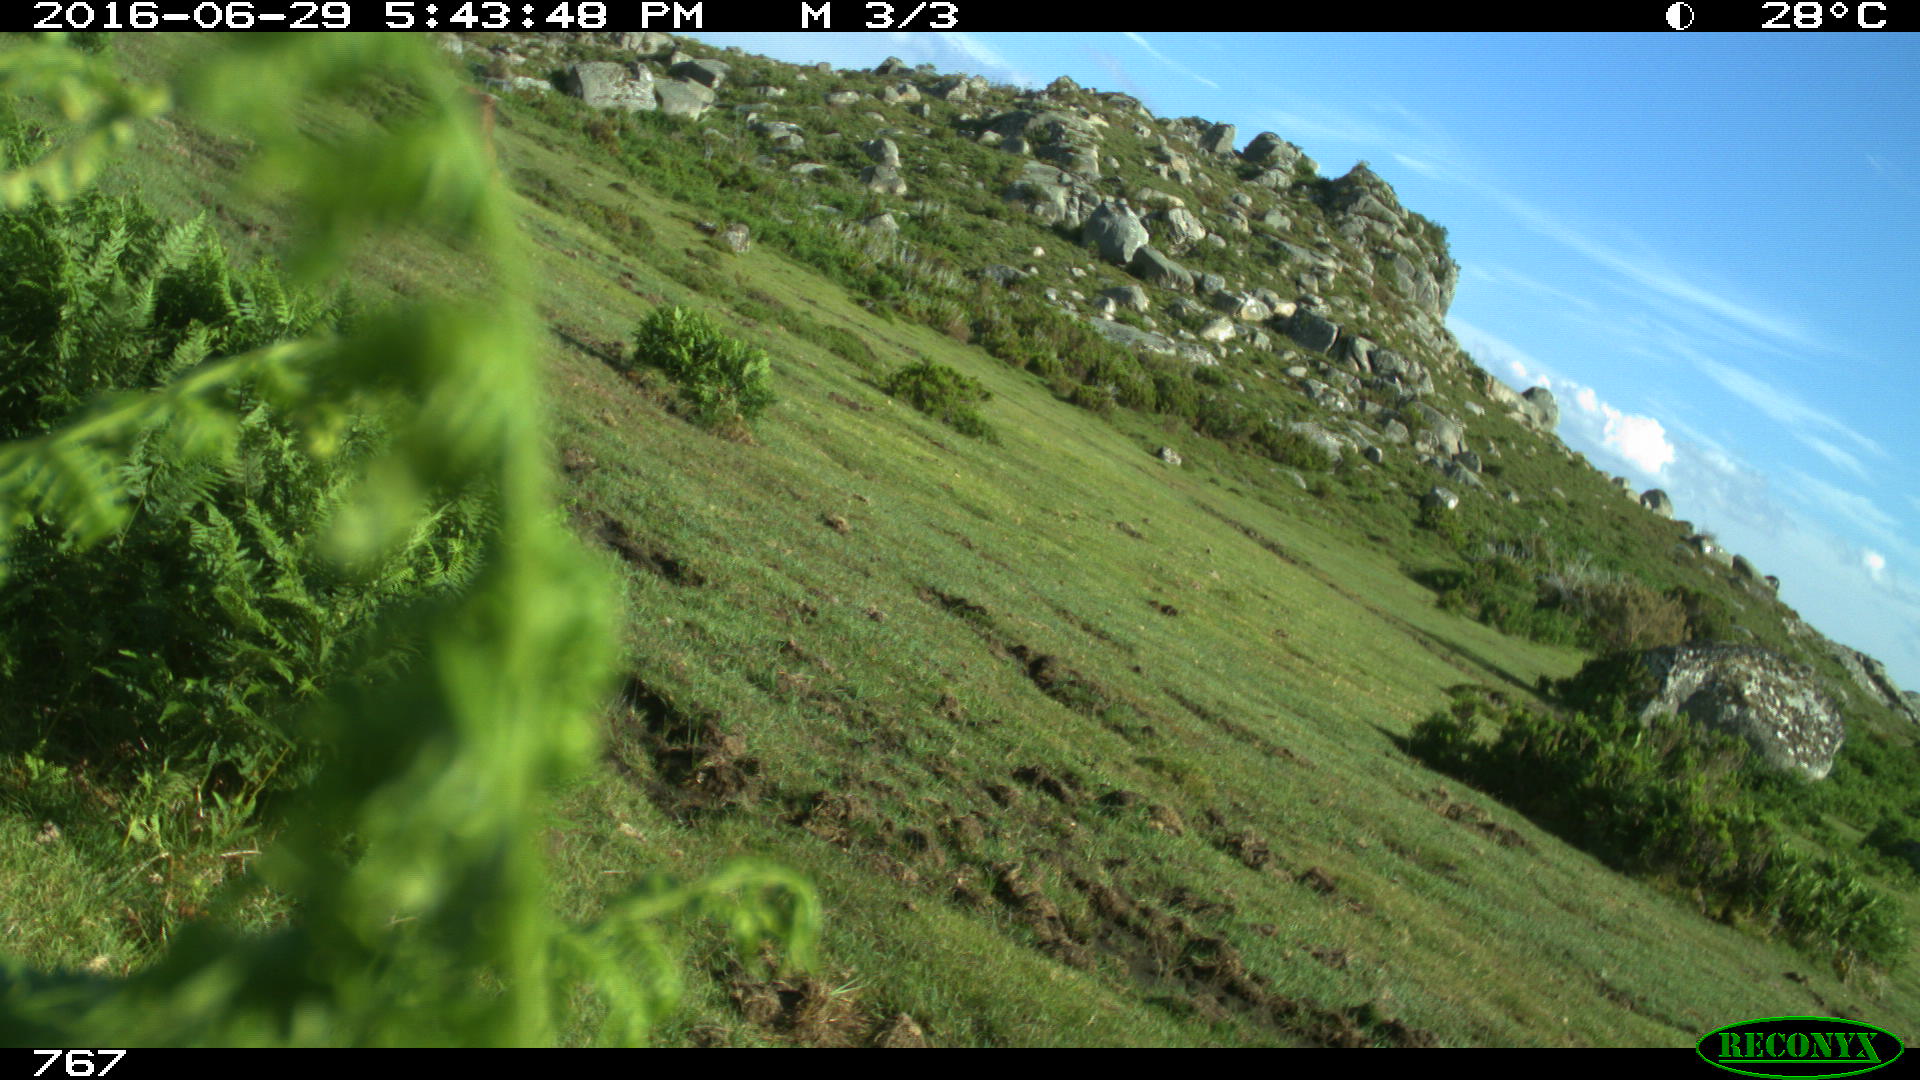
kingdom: Animalia
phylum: Chordata
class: Mammalia
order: Perissodactyla
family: Equidae
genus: Equus
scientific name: Equus caballus
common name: Horse
